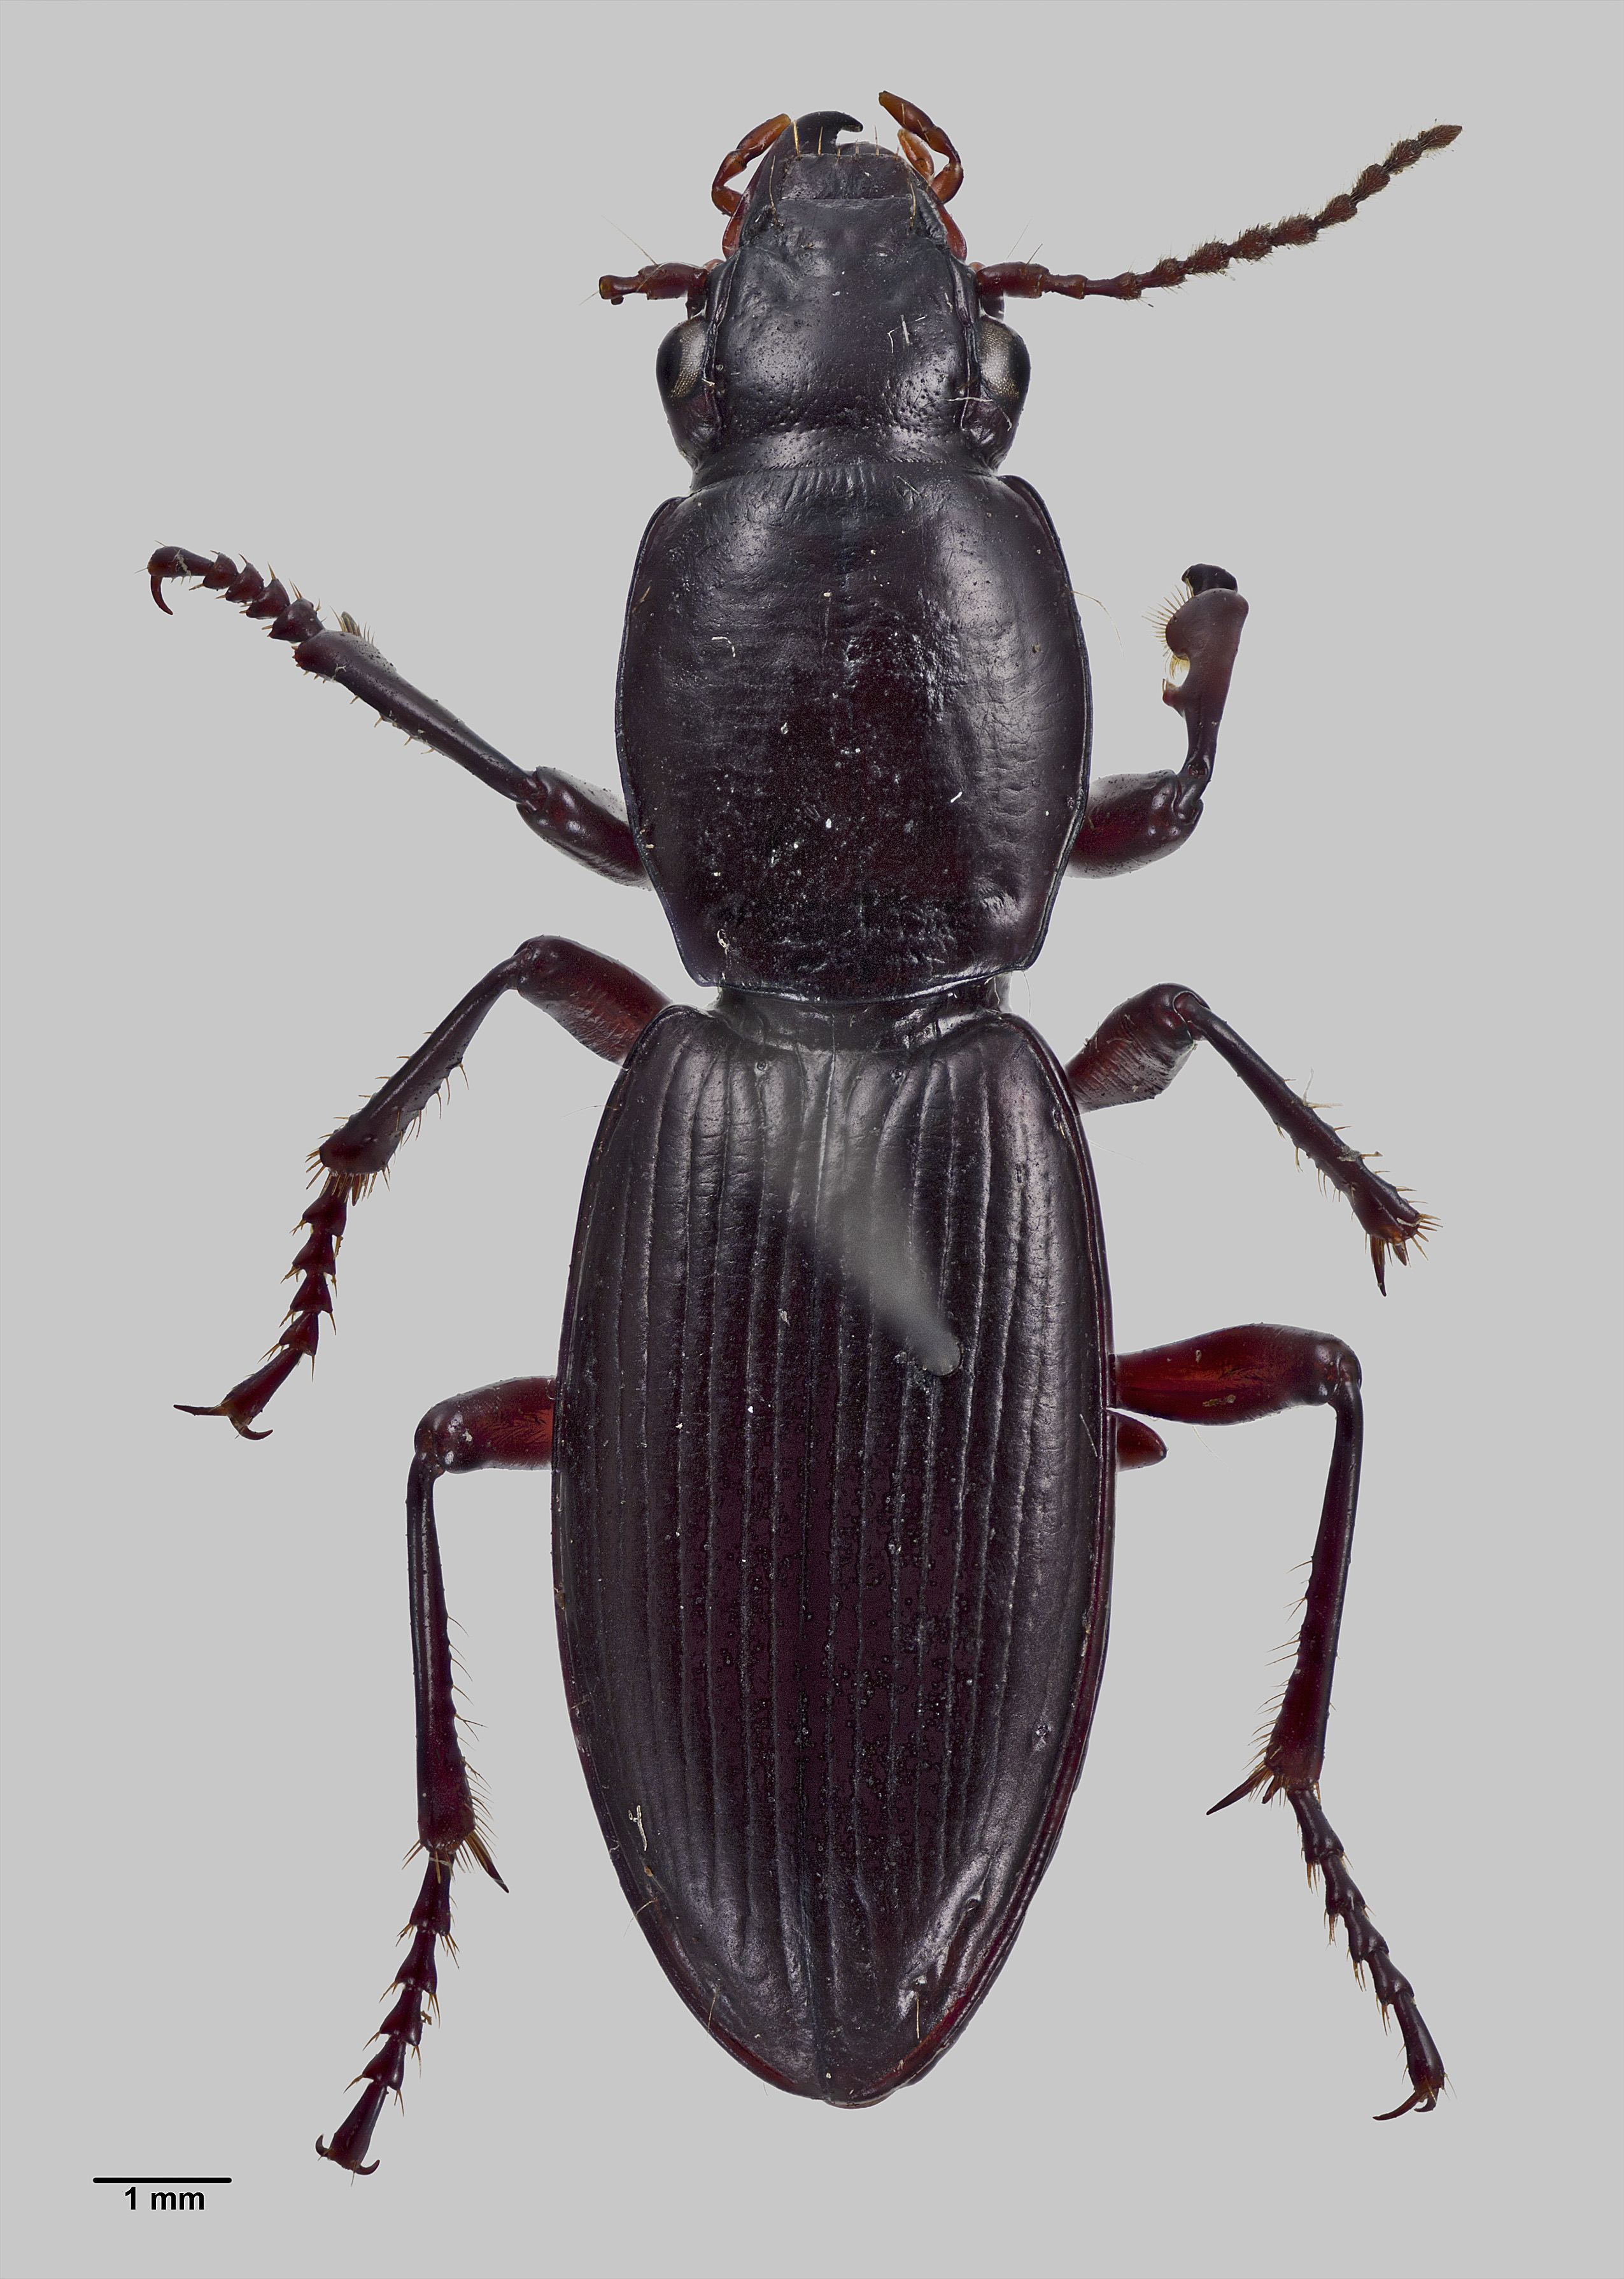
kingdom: Animalia
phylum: Arthropoda
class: Insecta
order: Coleoptera
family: Carabidae
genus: Bountya
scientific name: Bountya insularis
